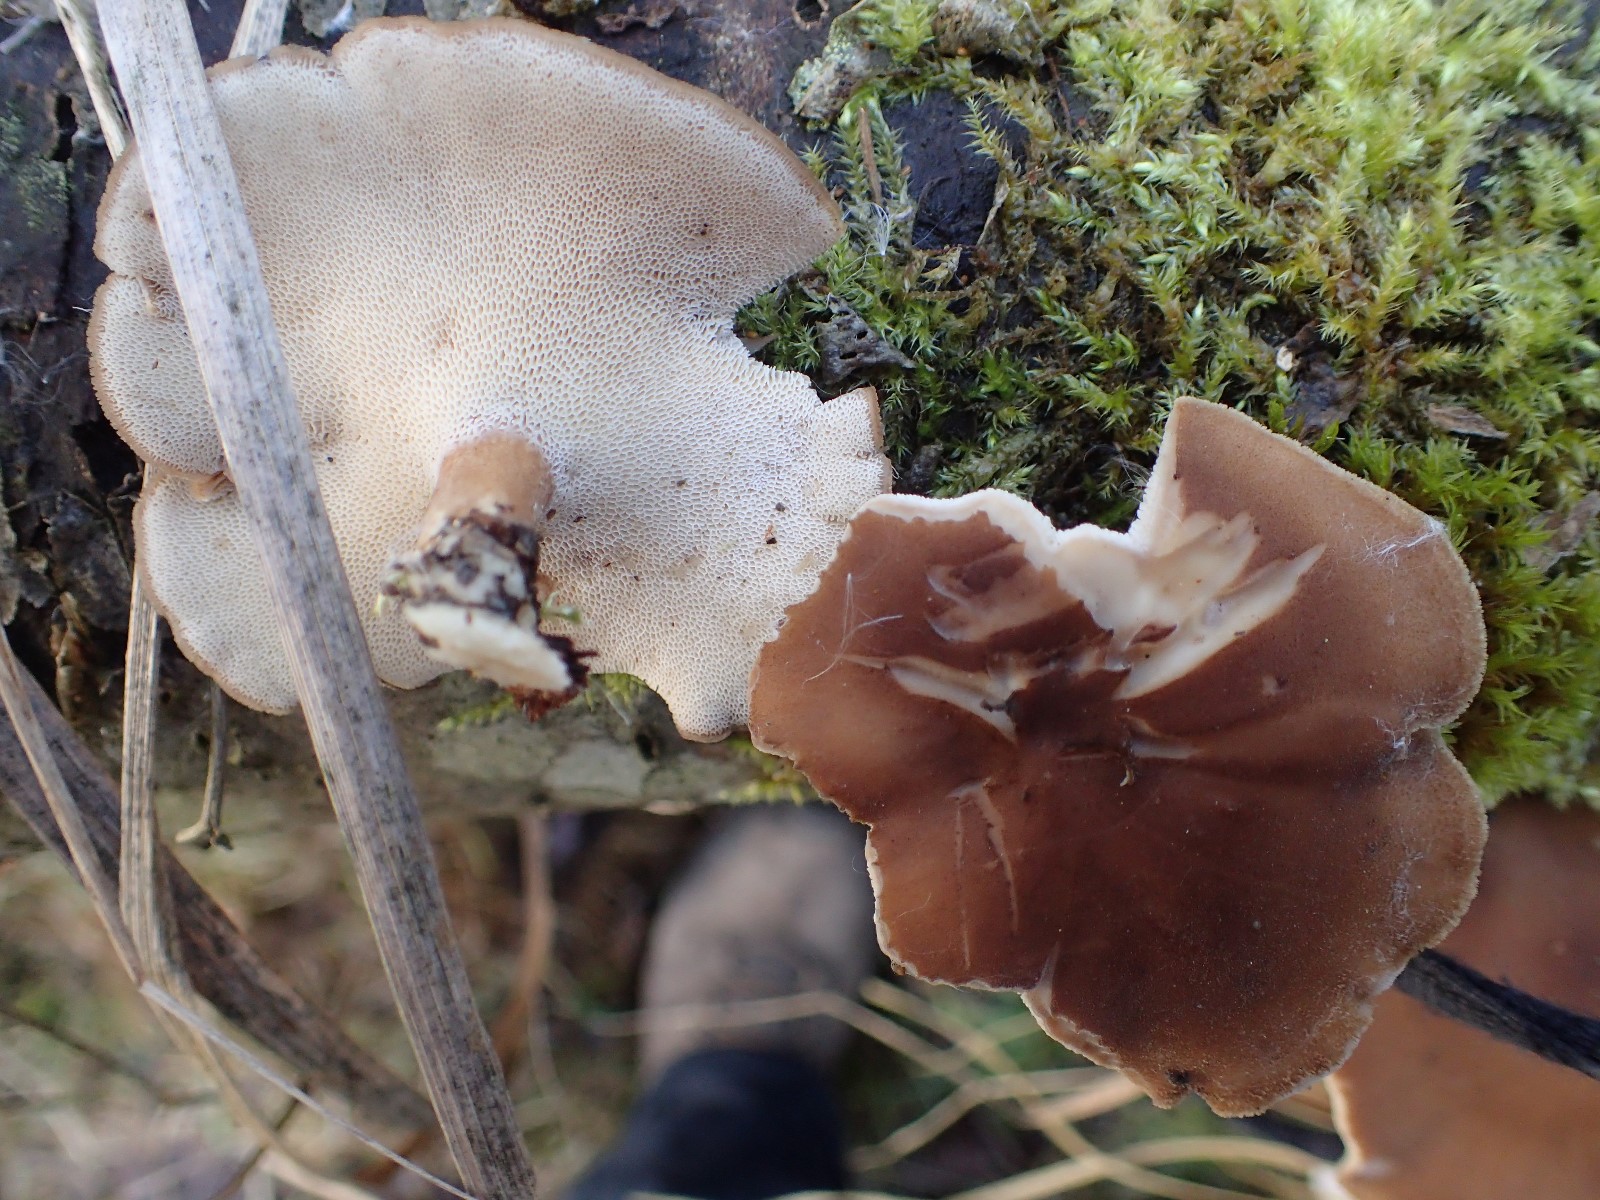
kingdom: Fungi
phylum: Basidiomycota
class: Agaricomycetes
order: Polyporales
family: Polyporaceae
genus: Lentinus
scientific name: Lentinus brumalis
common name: vinter-stilkporesvamp
